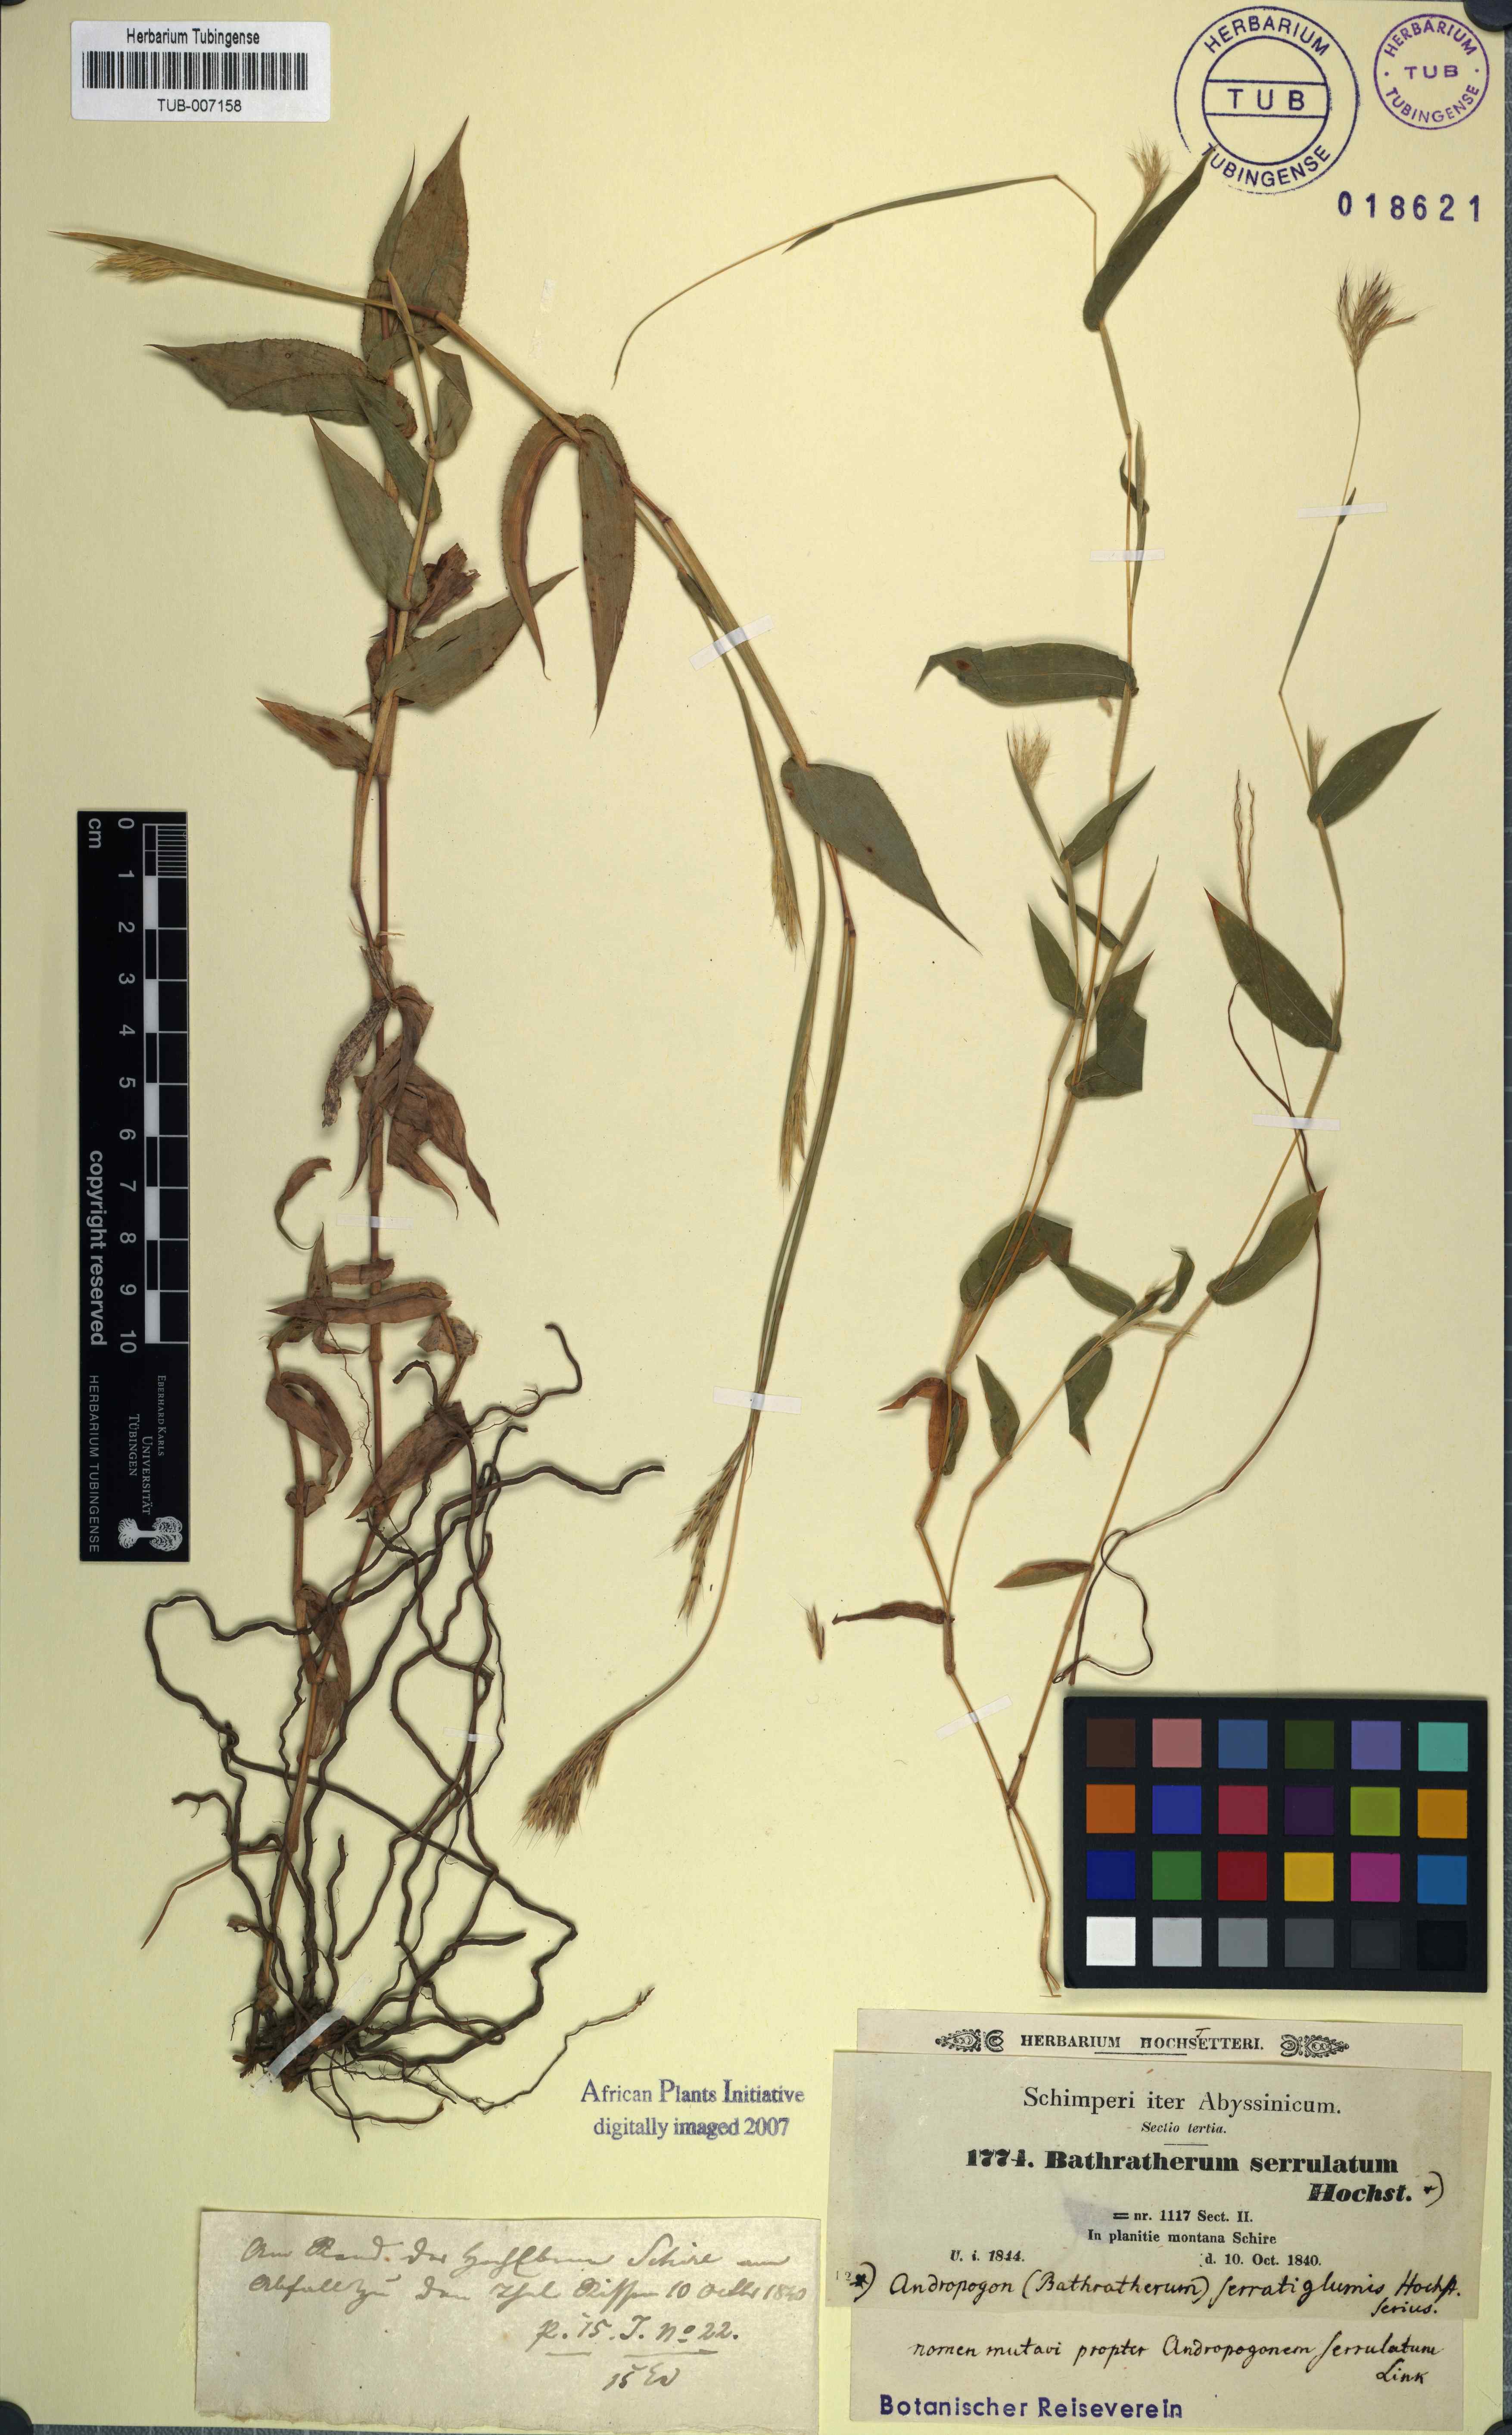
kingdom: Plantae
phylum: Tracheophyta
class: Liliopsida
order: Poales
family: Poaceae
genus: Arthraxon
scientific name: Arthraxon lanceolatus
